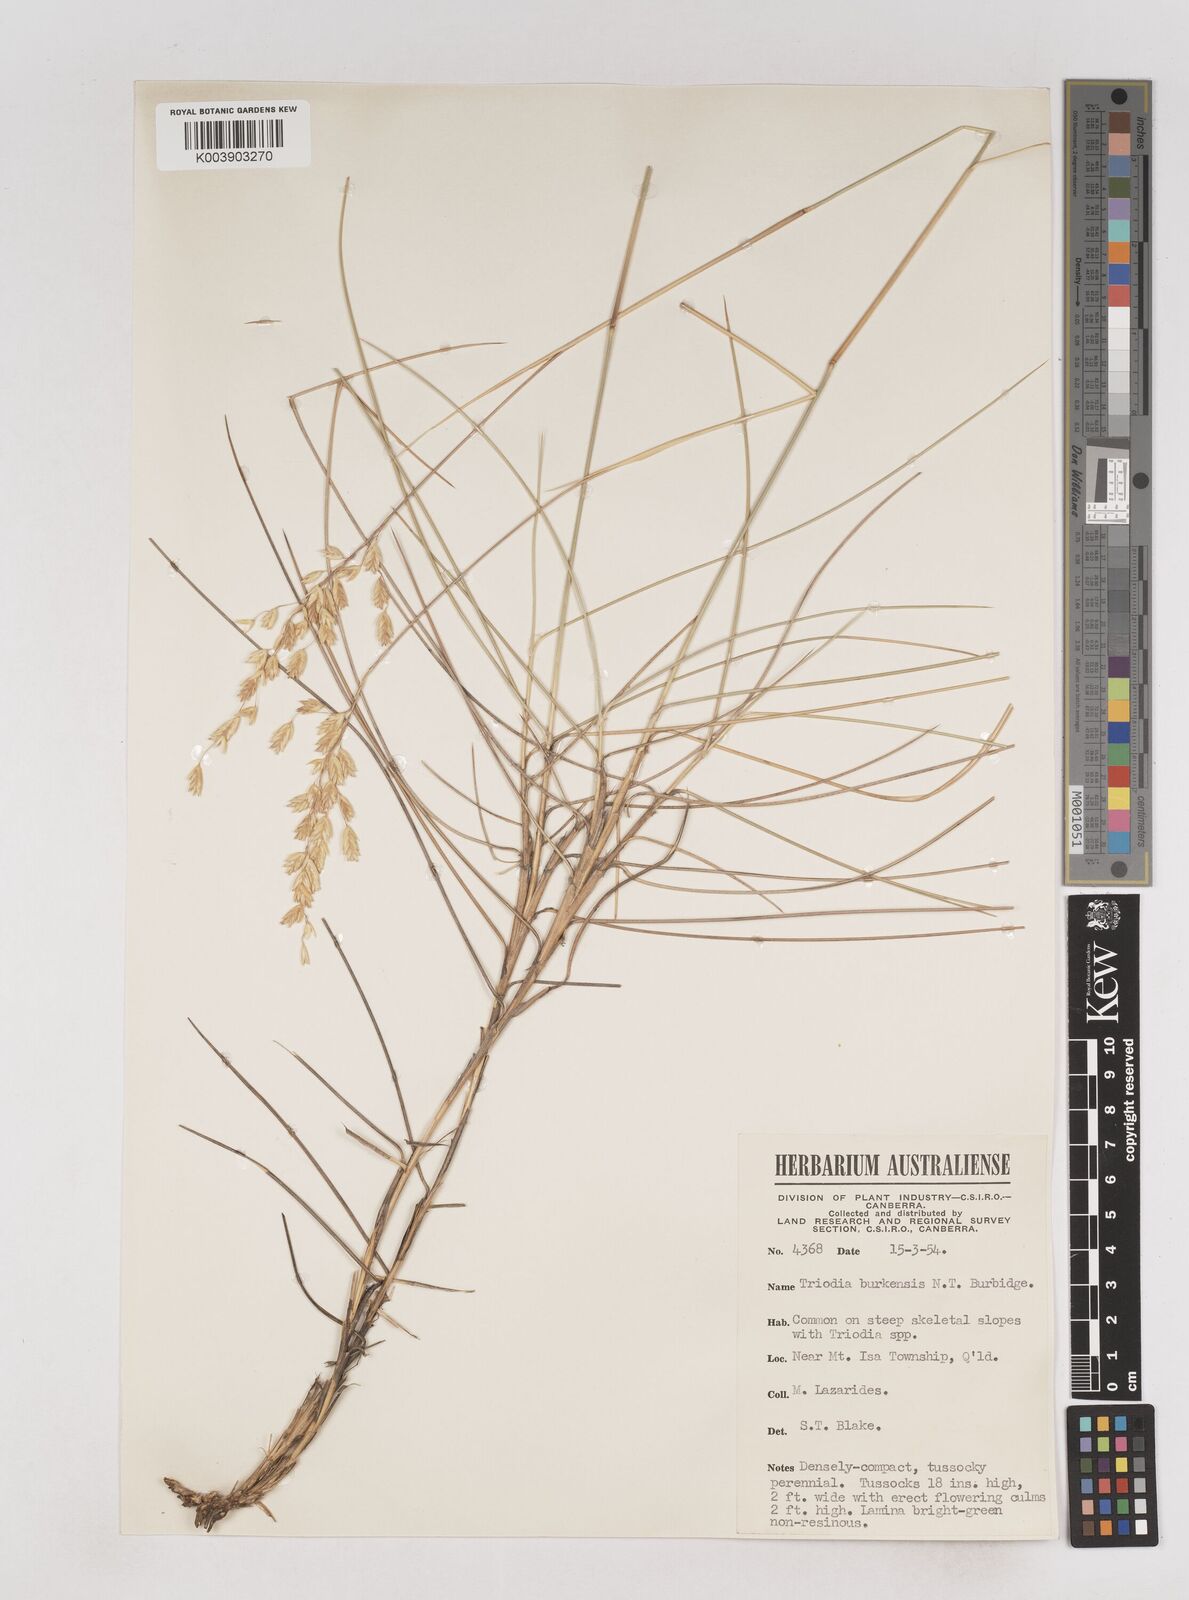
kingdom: Plantae
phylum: Tracheophyta
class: Liliopsida
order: Poales
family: Poaceae
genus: Triodia
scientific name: Triodia brizoides
